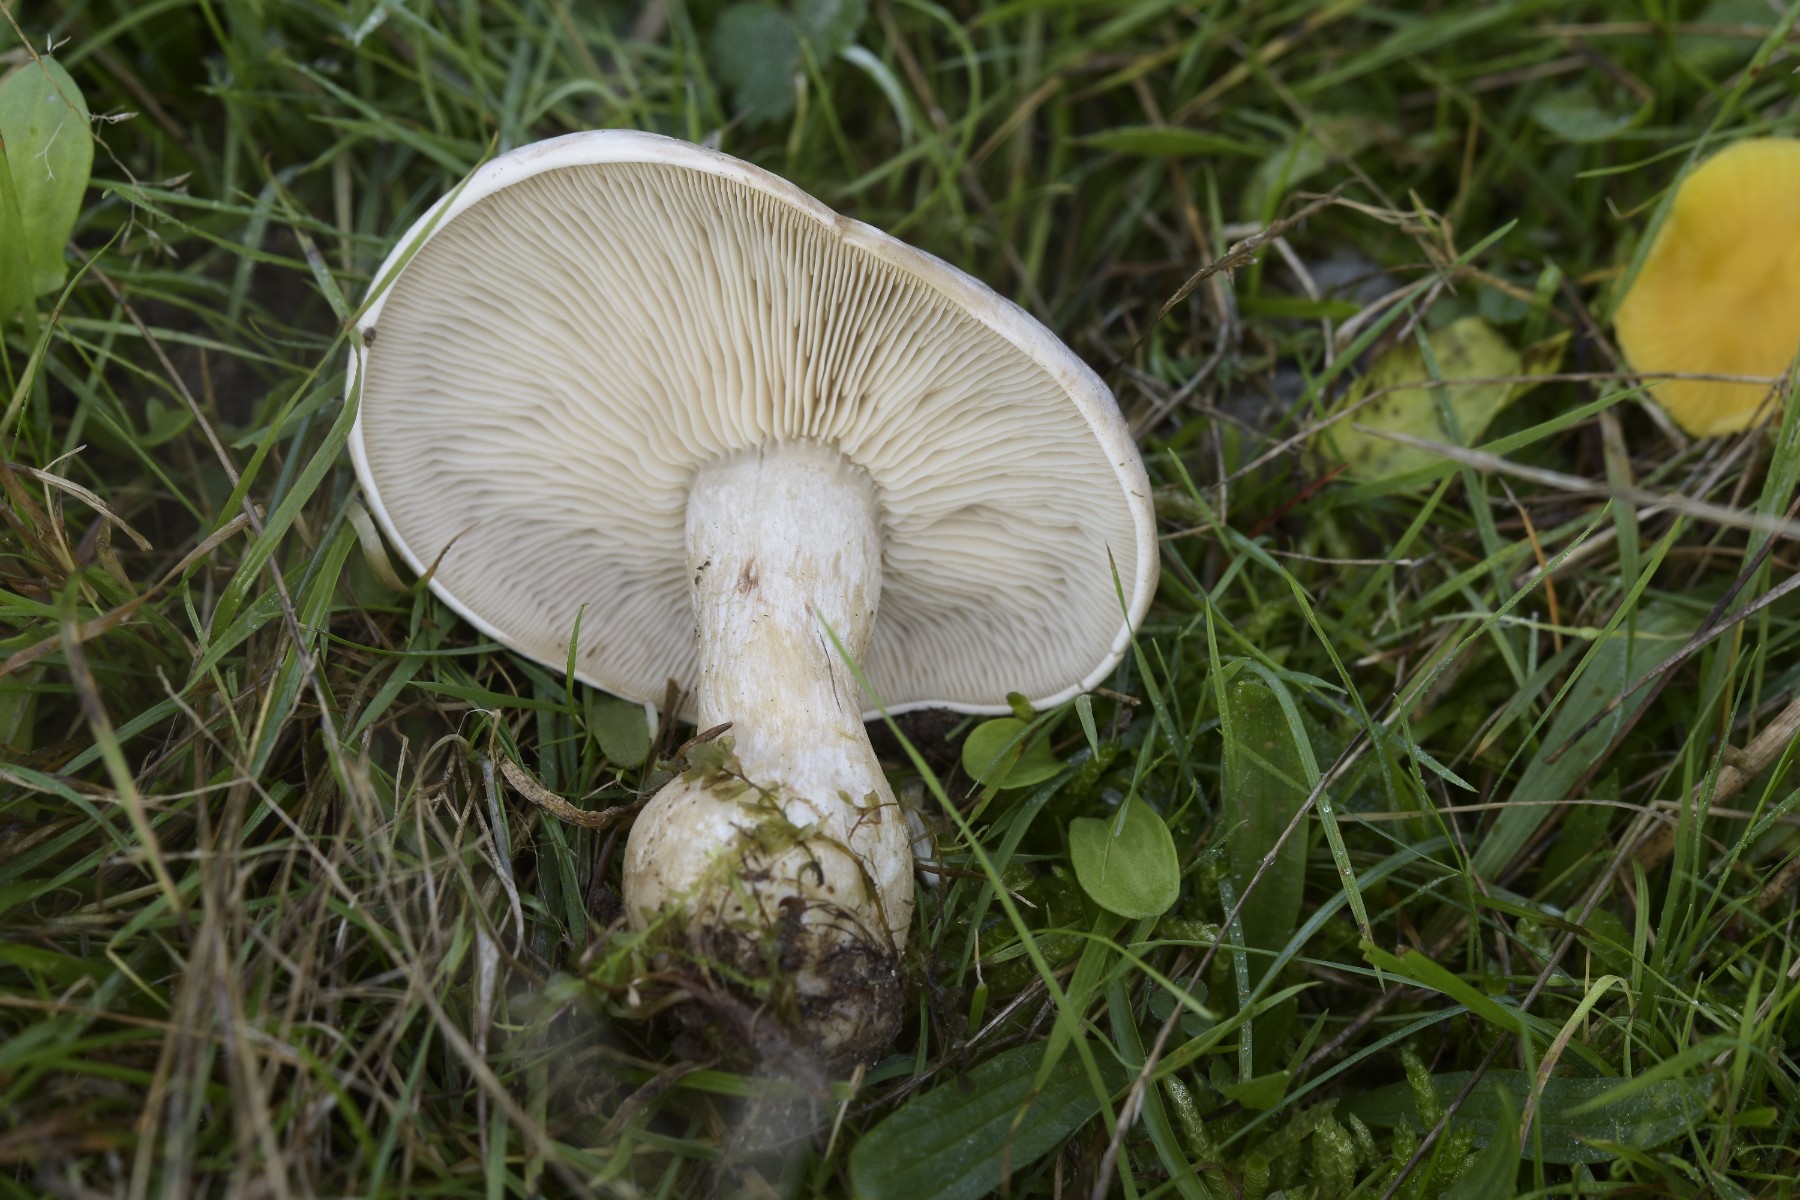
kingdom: Fungi
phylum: Basidiomycota
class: Agaricomycetes
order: Agaricales
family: Tricholomataceae
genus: Lepista
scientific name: Lepista panaeolus
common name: marmoreret hekseringshat
